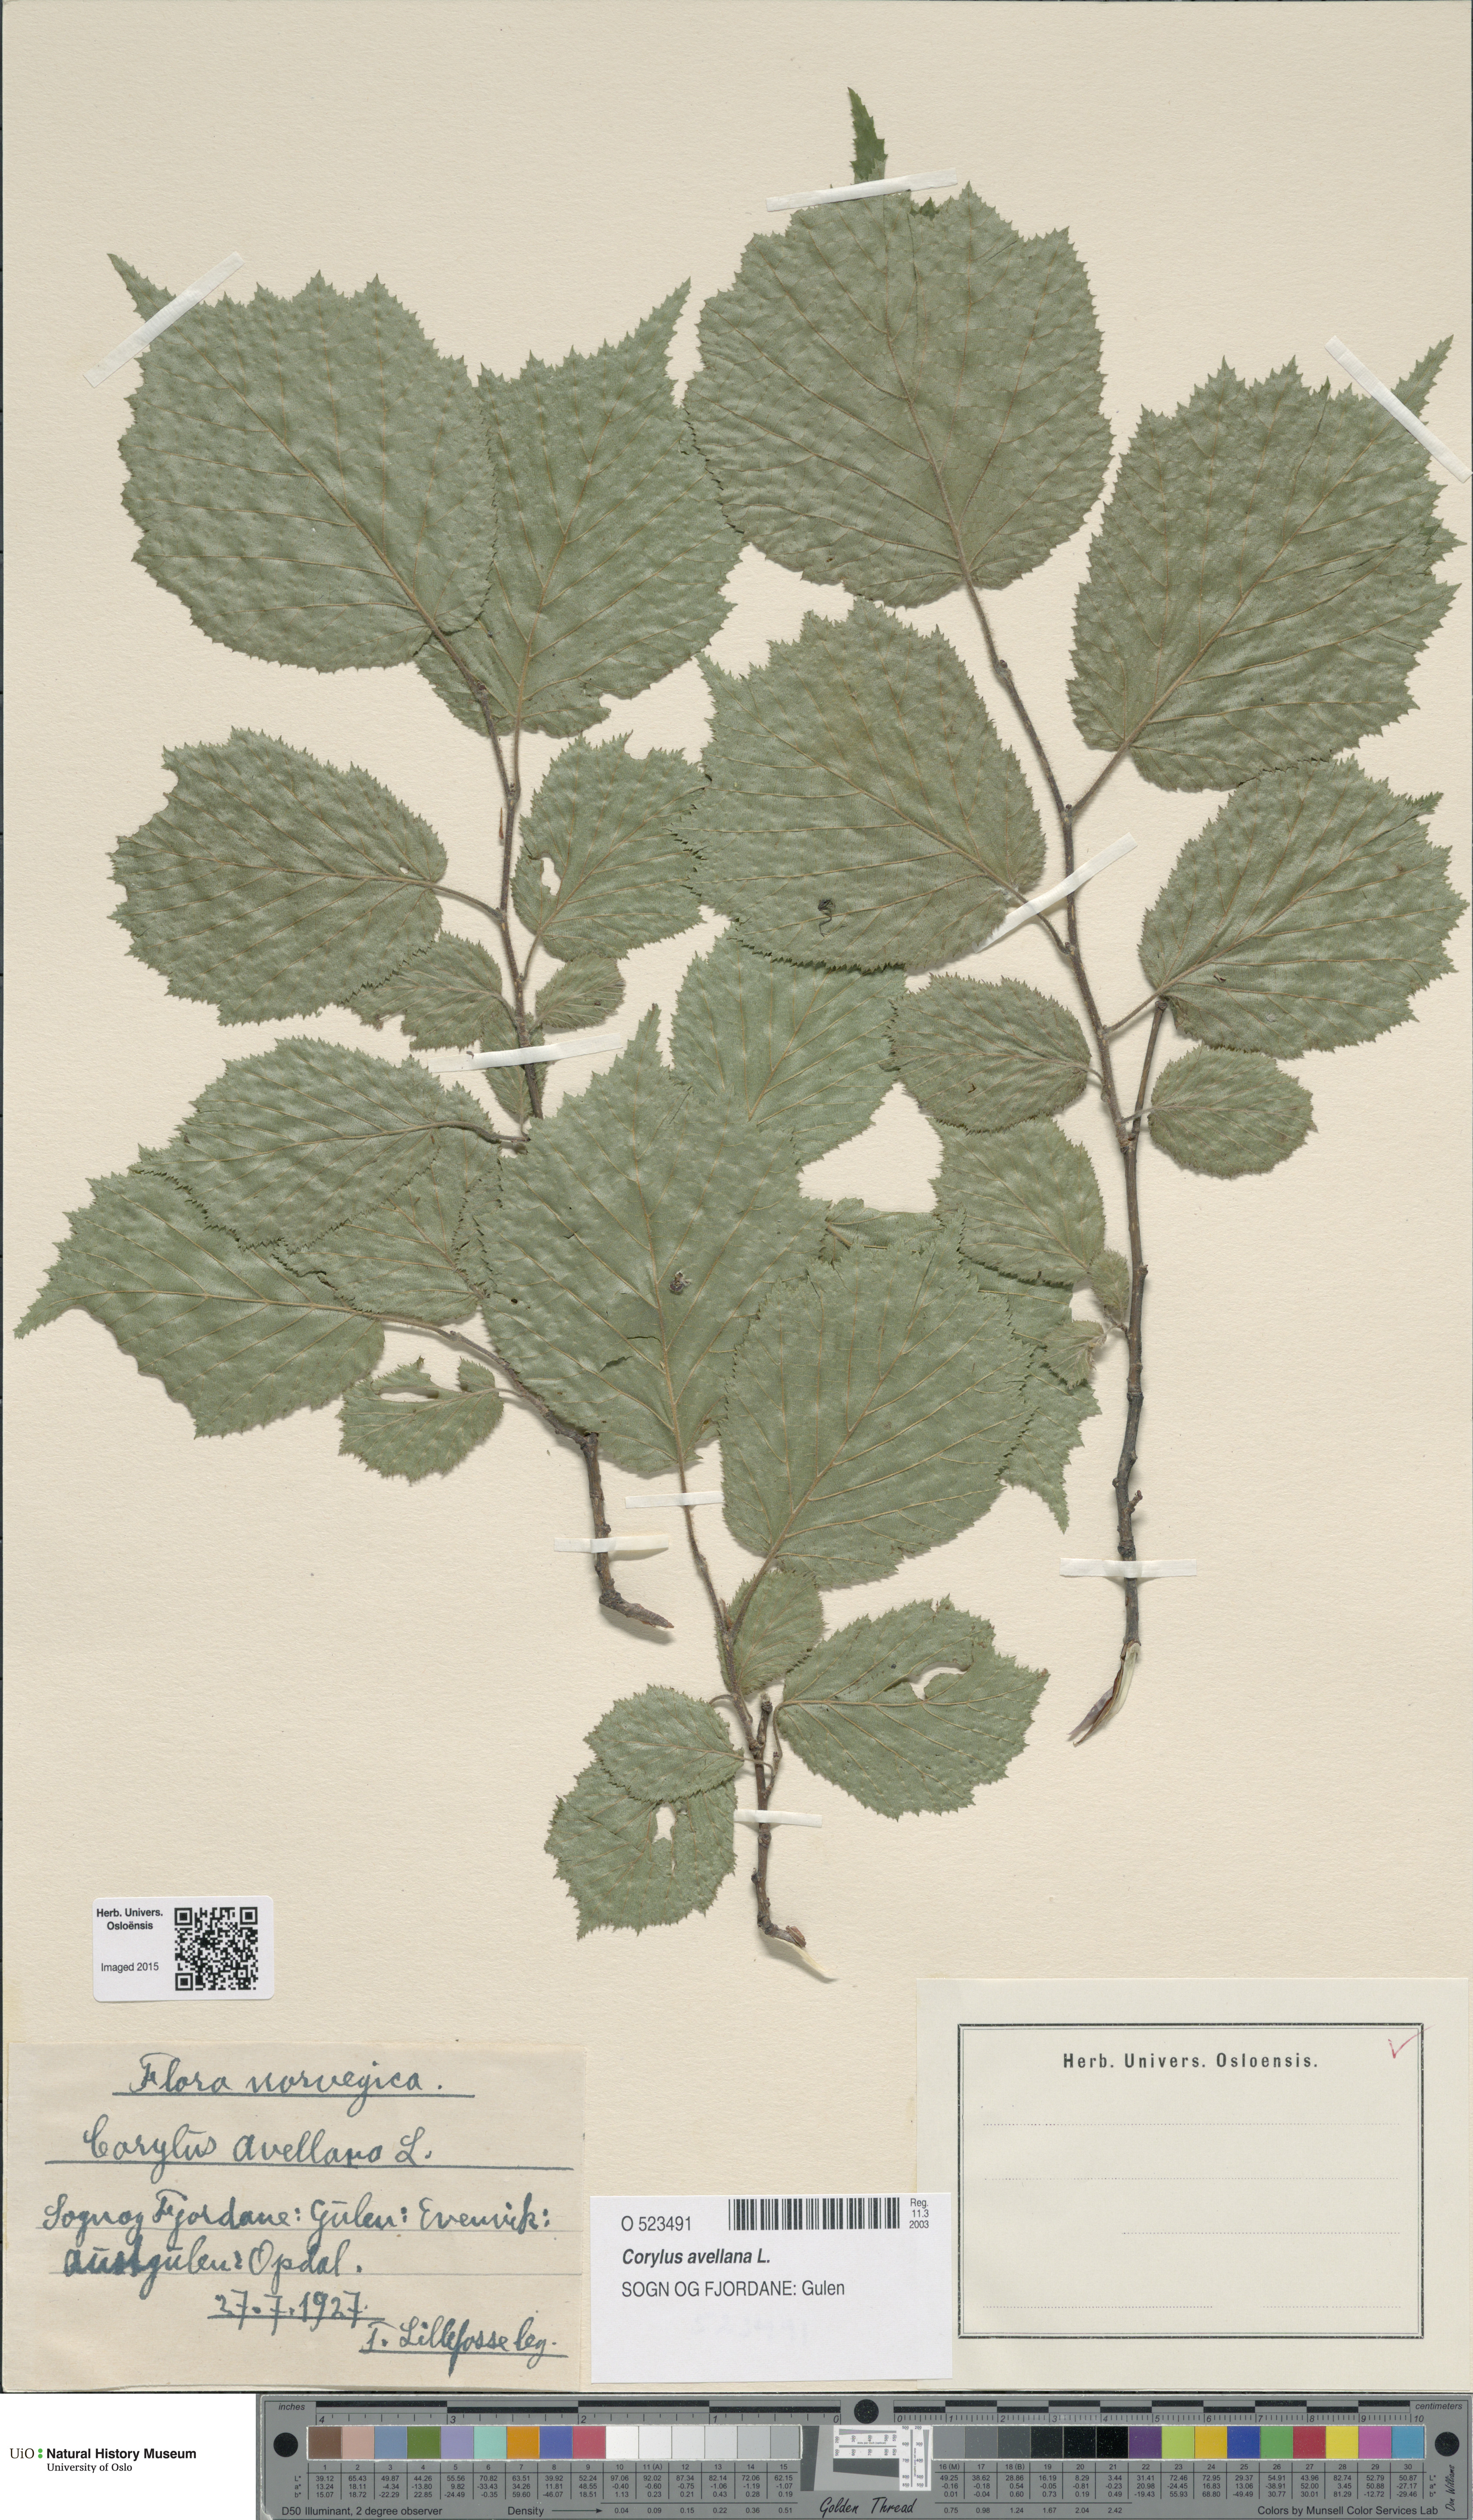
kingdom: Plantae
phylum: Tracheophyta
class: Magnoliopsida
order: Fagales
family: Betulaceae
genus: Corylus
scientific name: Corylus avellana
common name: European hazel
